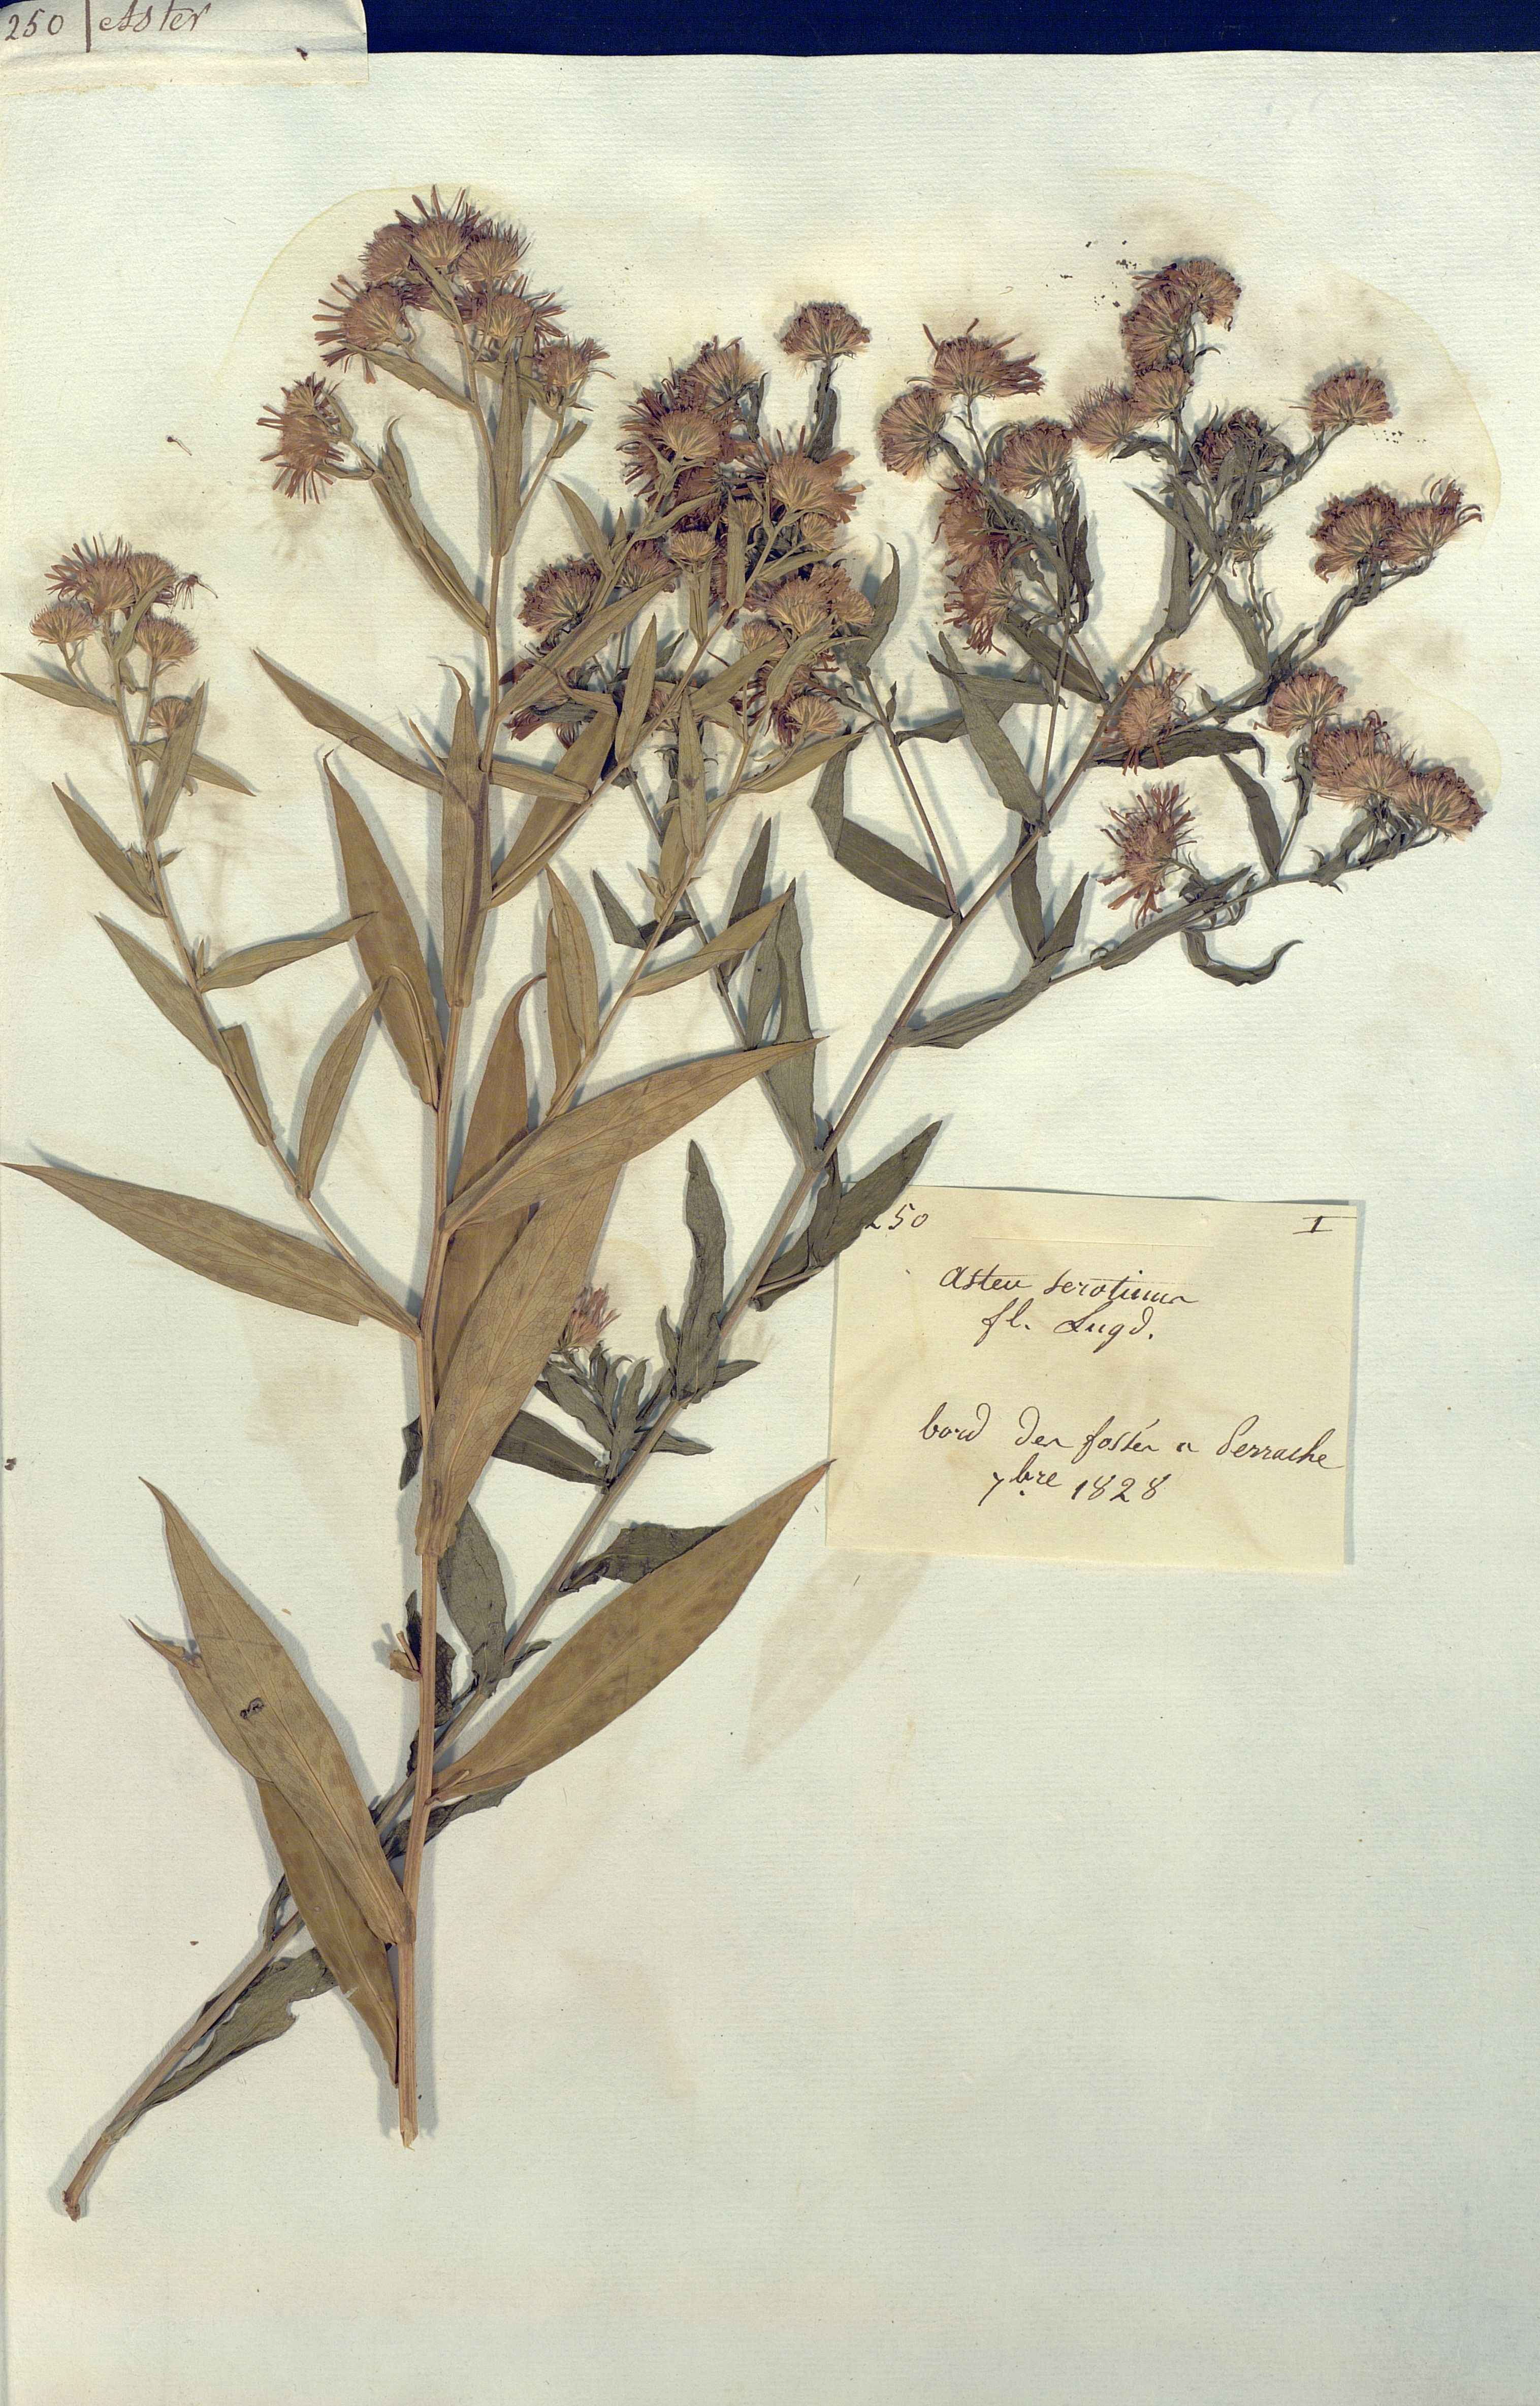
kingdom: Plantae
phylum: Tracheophyta
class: Magnoliopsida
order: Asterales
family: Asteraceae
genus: Symphyotrichum
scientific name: Symphyotrichum novi-belgii
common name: Michaelmas daisy
